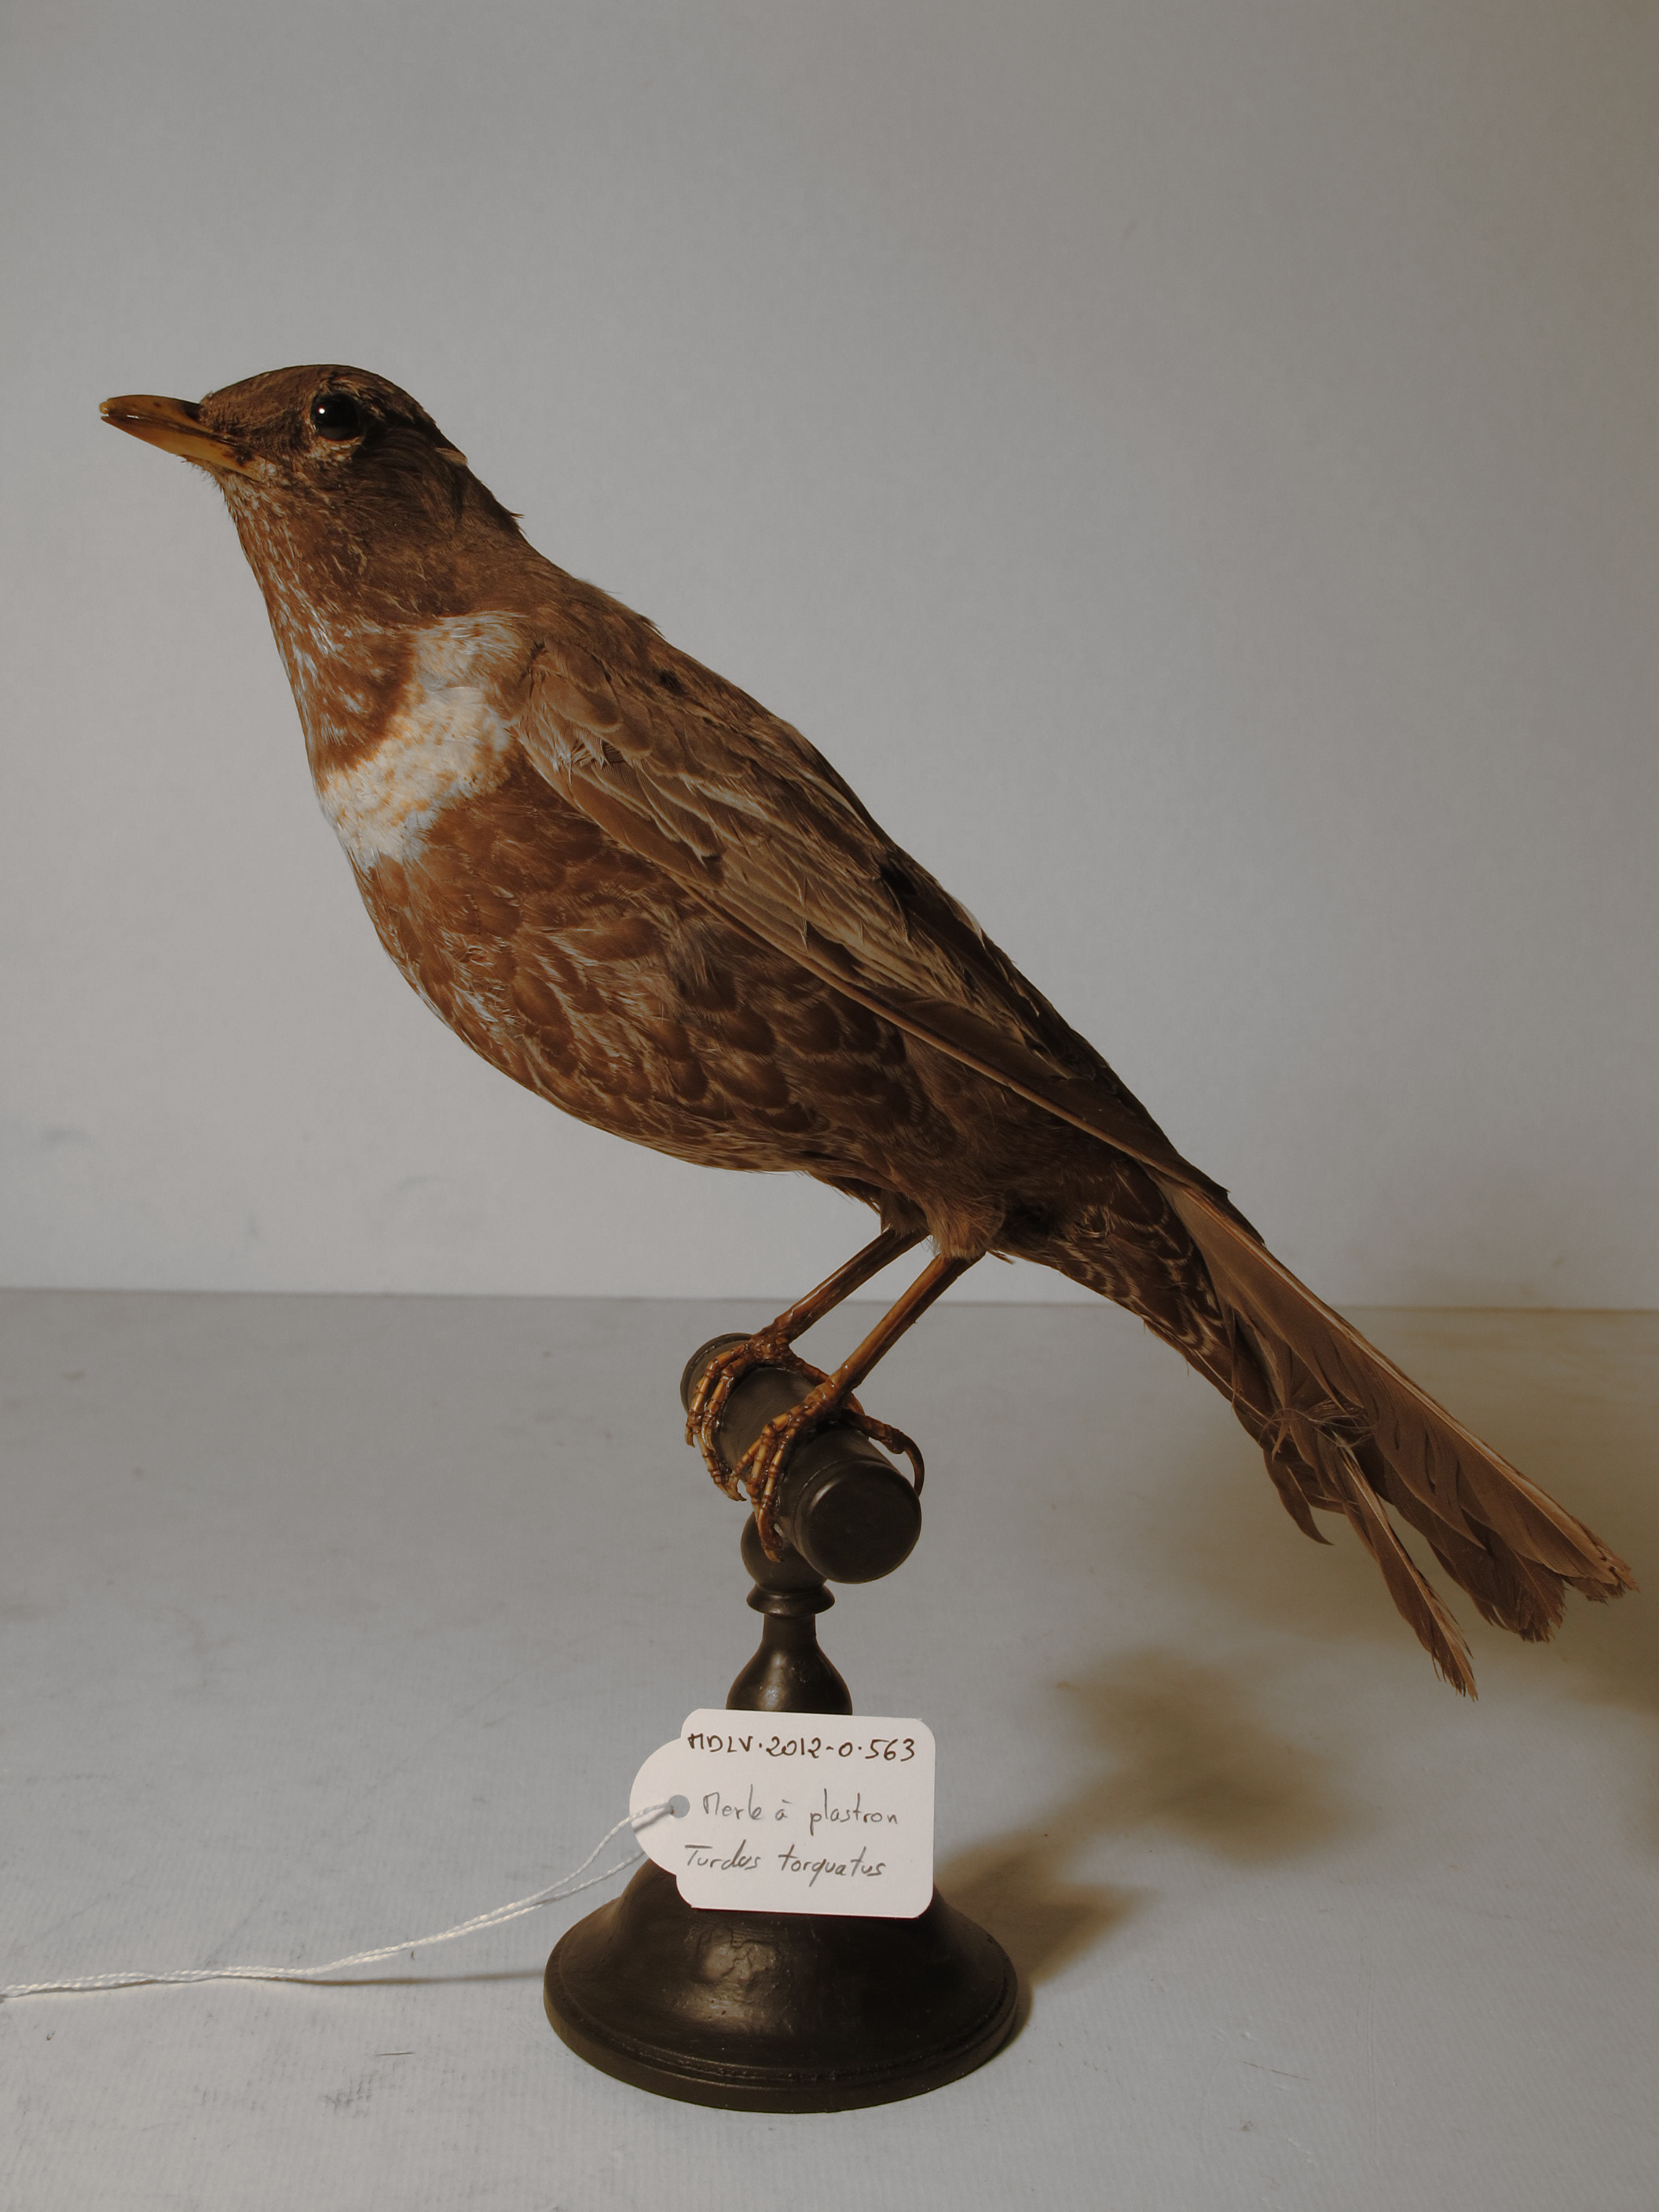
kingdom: Animalia
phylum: Chordata
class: Aves
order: Passeriformes
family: Turdidae
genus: Turdus
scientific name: Turdus torquatus
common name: Ring Ouzel
